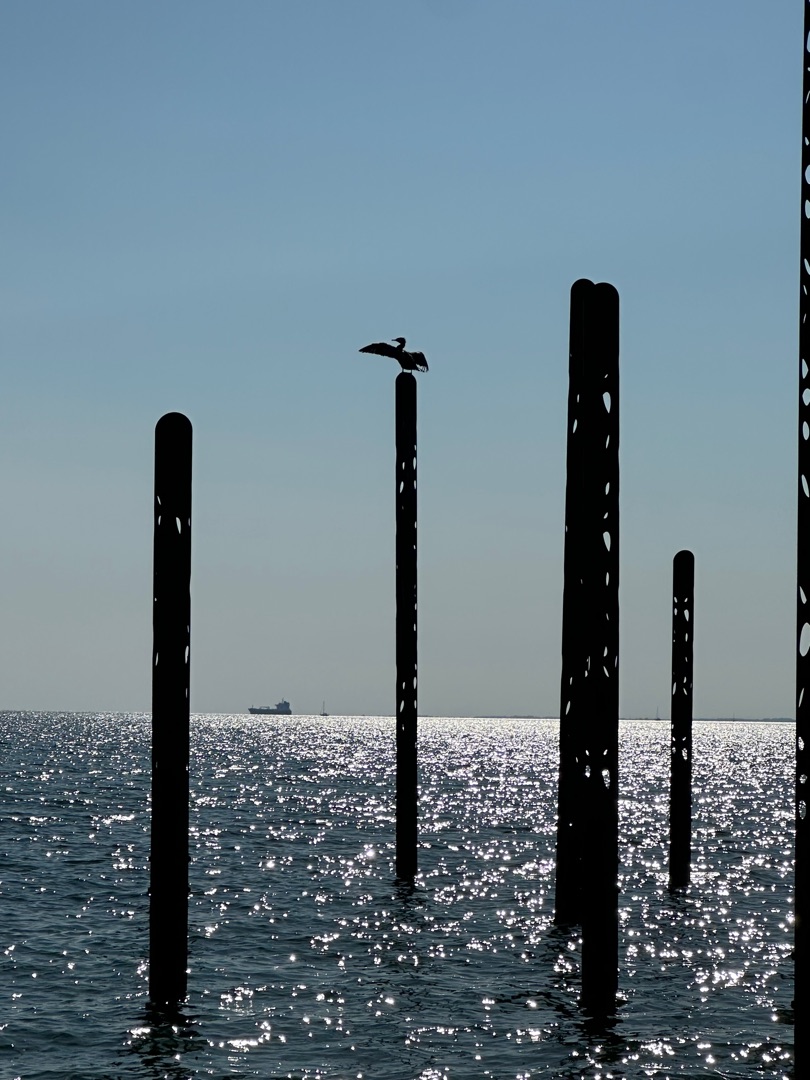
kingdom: Animalia
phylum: Chordata
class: Aves
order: Suliformes
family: Phalacrocoracidae
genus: Phalacrocorax
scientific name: Phalacrocorax carbo
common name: Skarv
